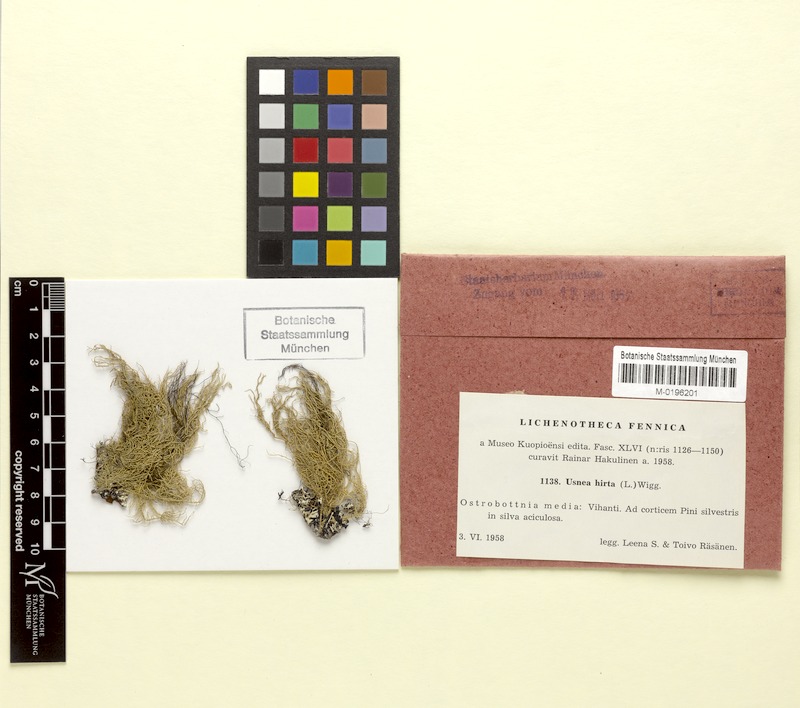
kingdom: Fungi
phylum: Ascomycota
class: Lecanoromycetes
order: Lecanorales
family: Parmeliaceae
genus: Usnea
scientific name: Usnea hirta
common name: Bristly beard lichen
